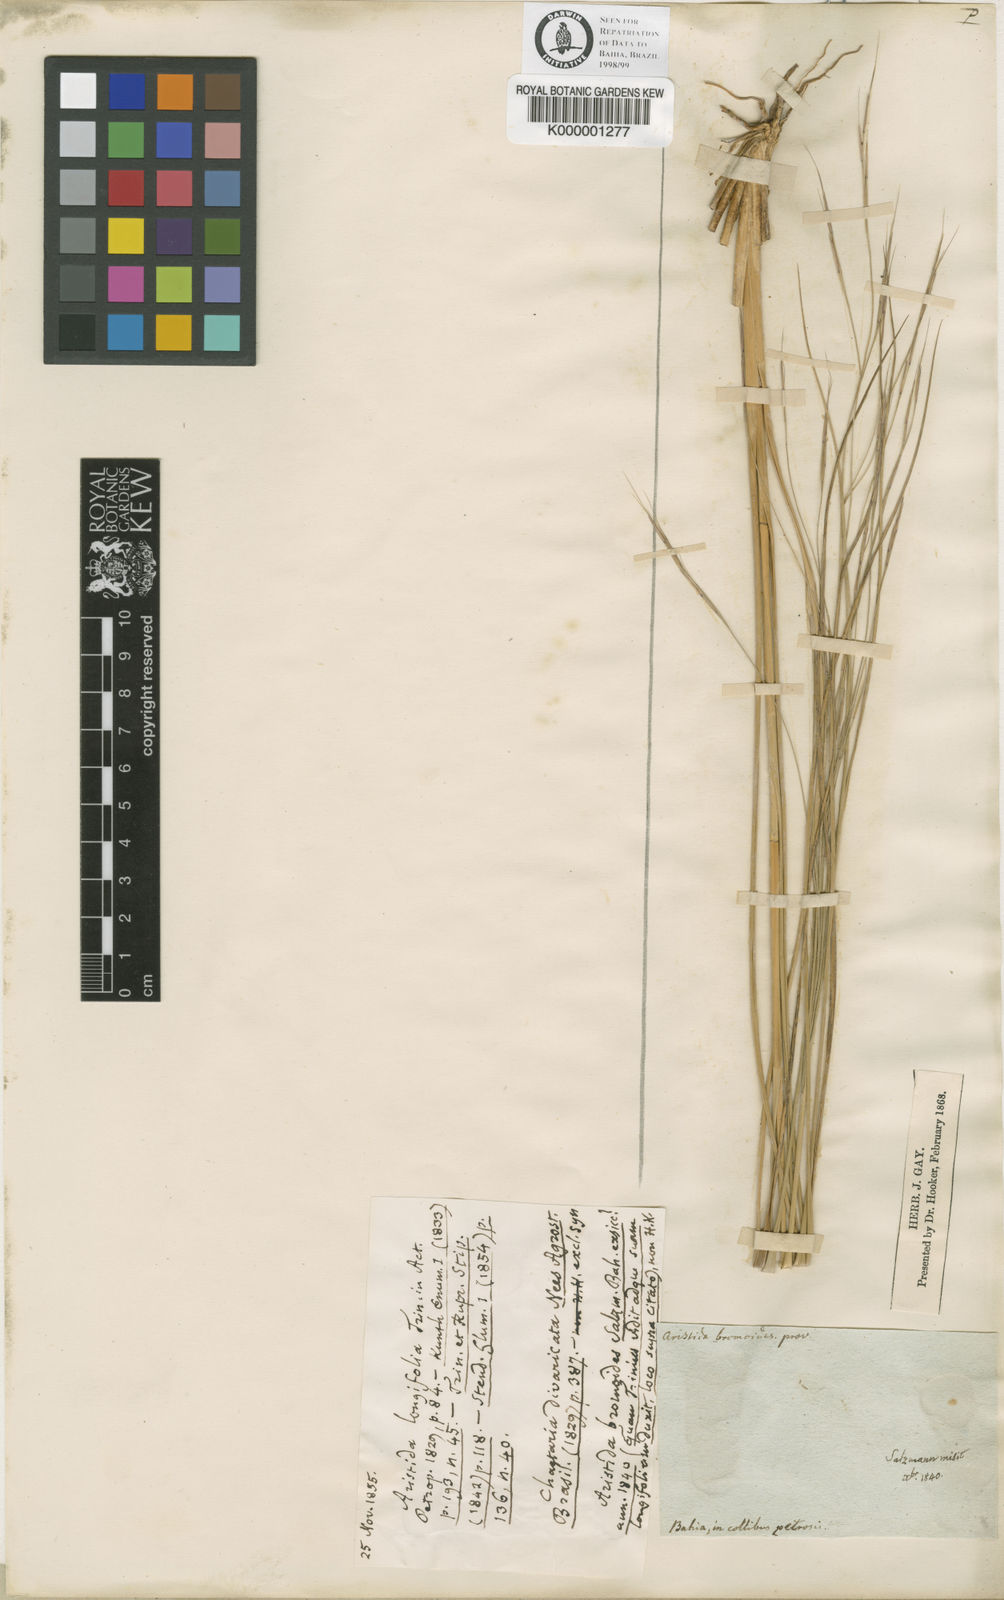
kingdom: Plantae
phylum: Tracheophyta
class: Liliopsida
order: Poales
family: Poaceae
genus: Aristida
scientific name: Aristida longifolia
